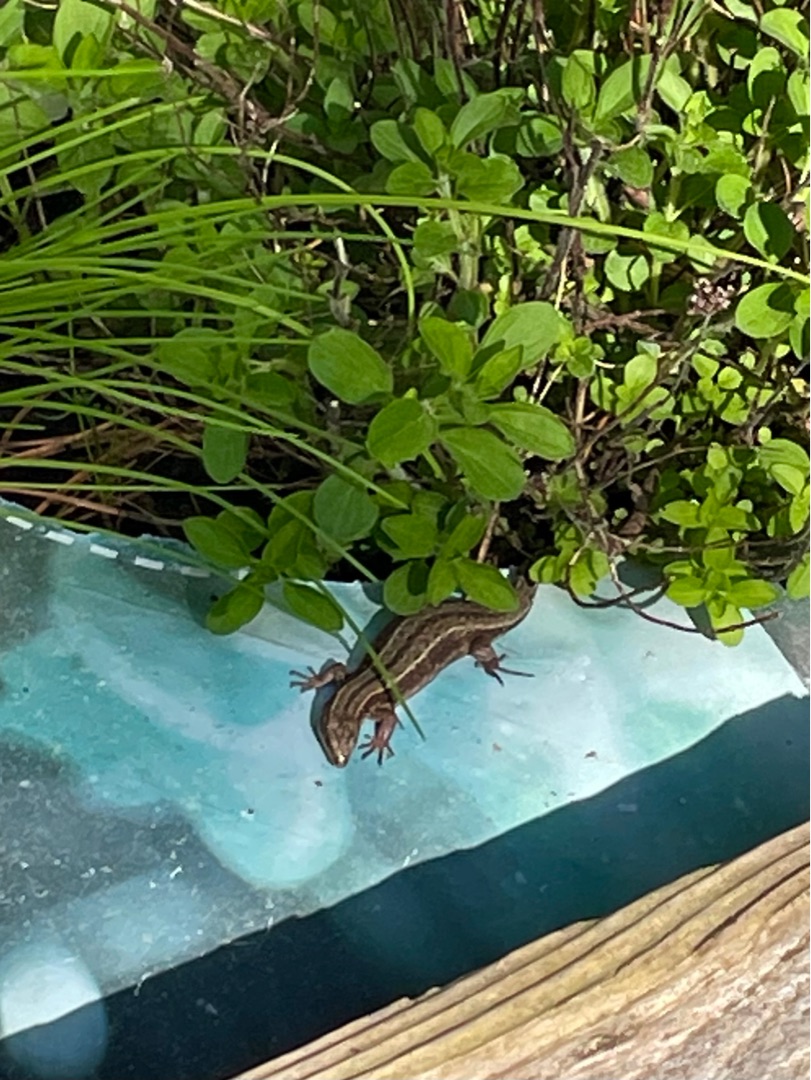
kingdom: Animalia
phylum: Chordata
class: Squamata
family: Lacertidae
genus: Zootoca
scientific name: Zootoca vivipara
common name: Skovfirben
